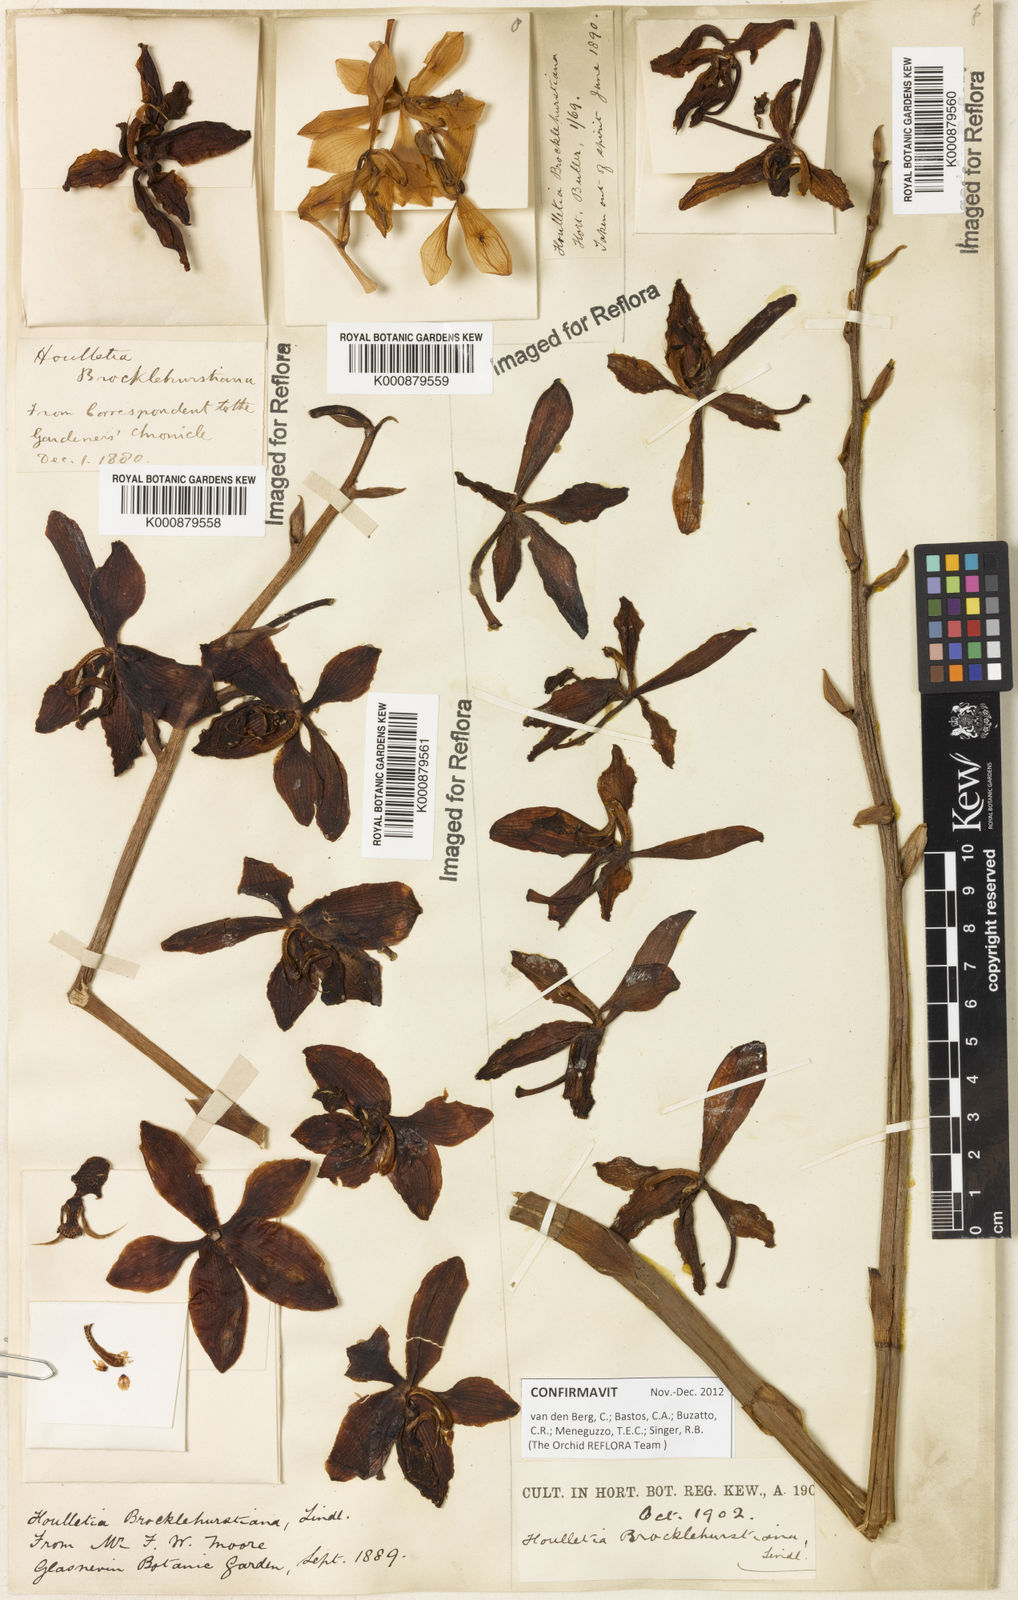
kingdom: Plantae
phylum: Tracheophyta
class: Liliopsida
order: Asparagales
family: Orchidaceae
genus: Houlletia
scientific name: Houlletia brocklehurstiana
